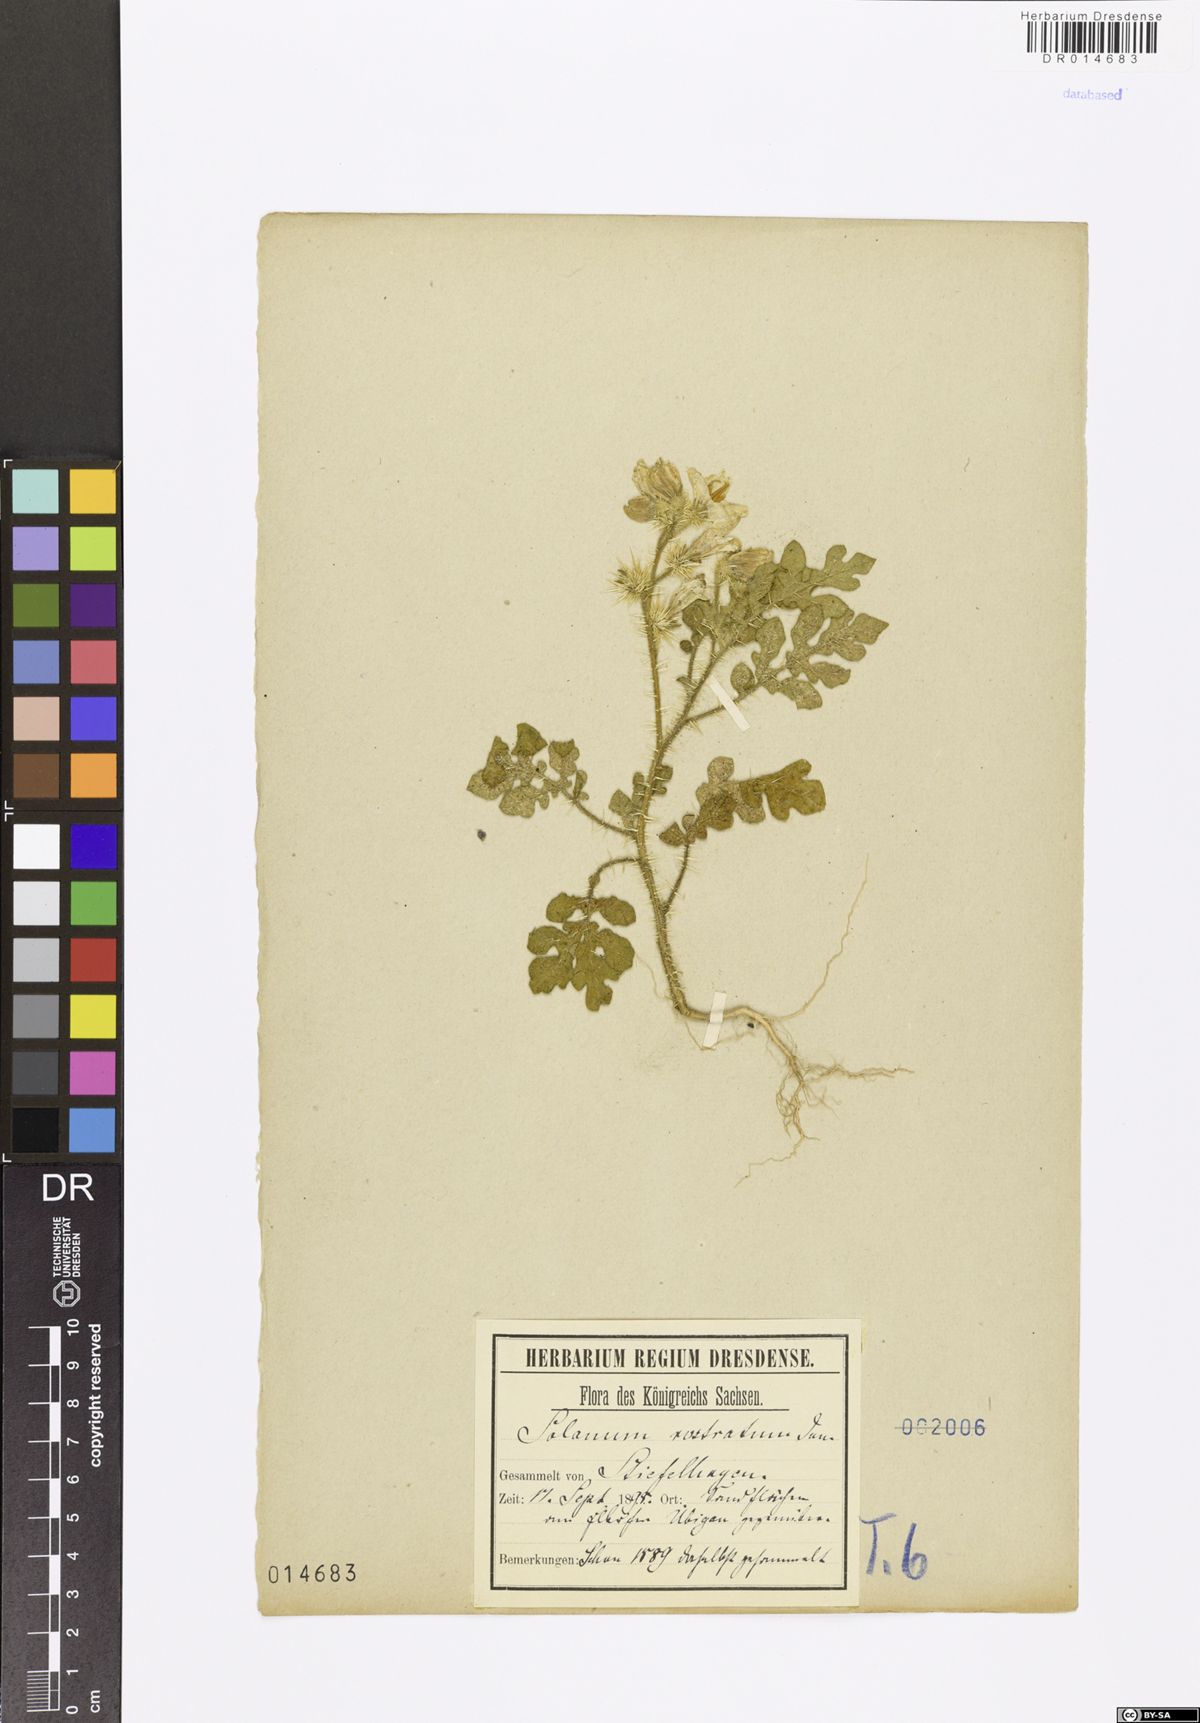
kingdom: Plantae
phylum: Tracheophyta
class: Magnoliopsida
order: Solanales
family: Solanaceae
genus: Solanum
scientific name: Solanum angustifolium
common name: Buffalobur nightshade
